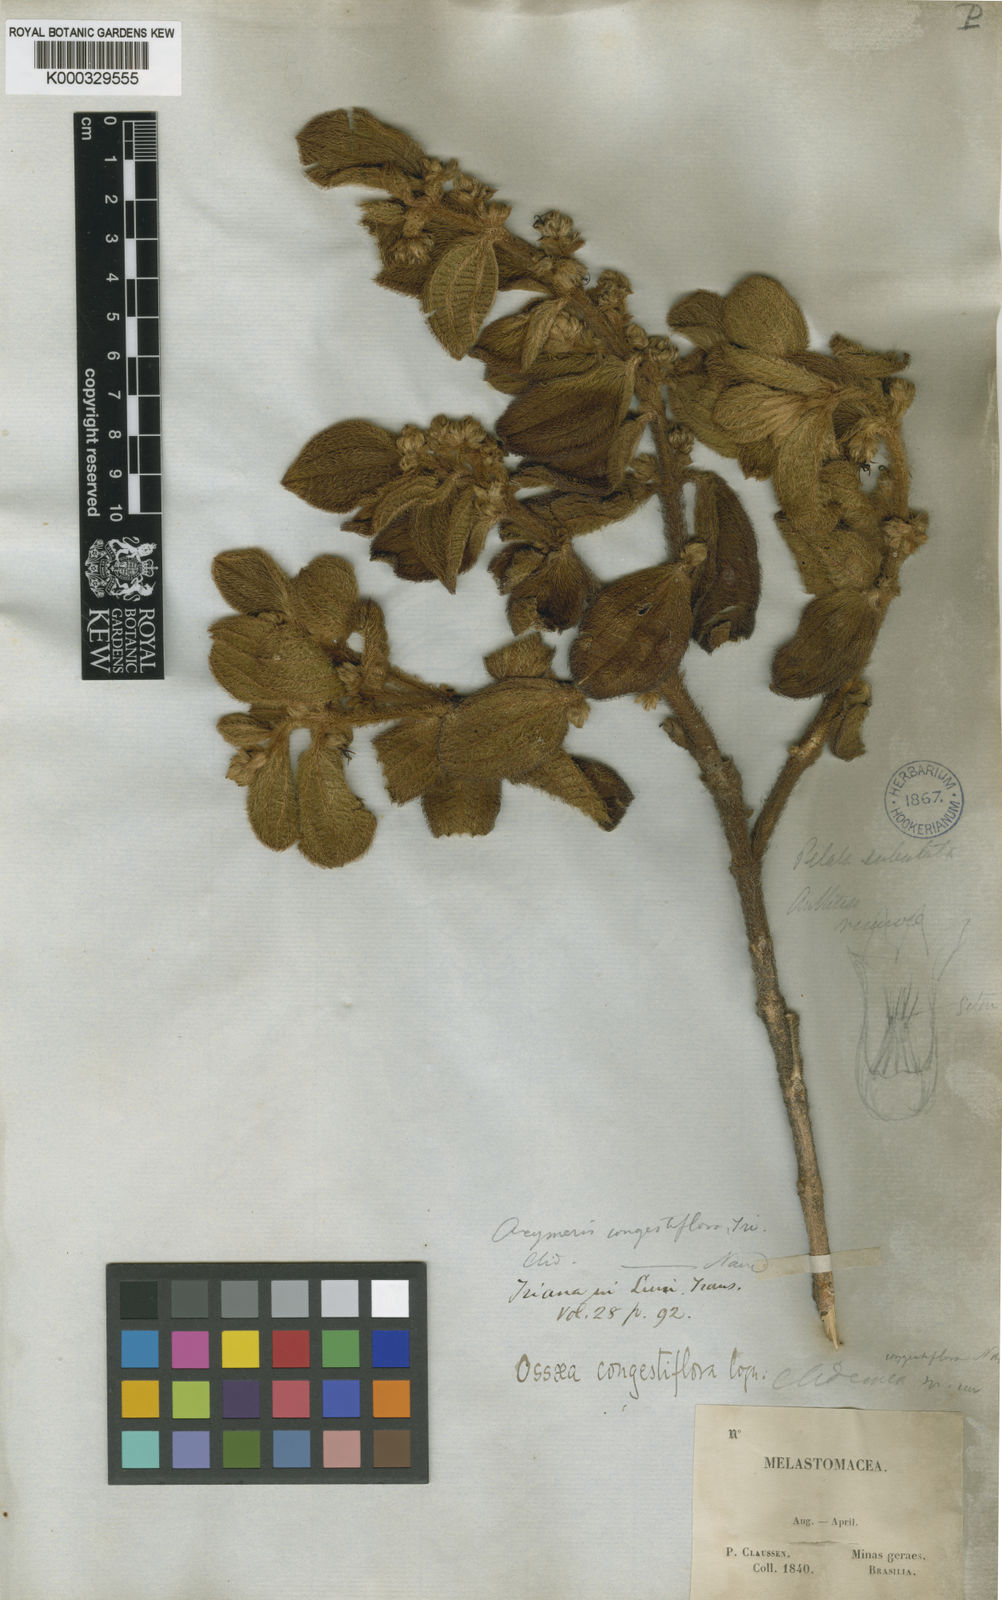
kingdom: Plantae
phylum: Tracheophyta
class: Magnoliopsida
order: Myrtales
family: Melastomataceae
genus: Miconia
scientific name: Miconia leacongestiflora
